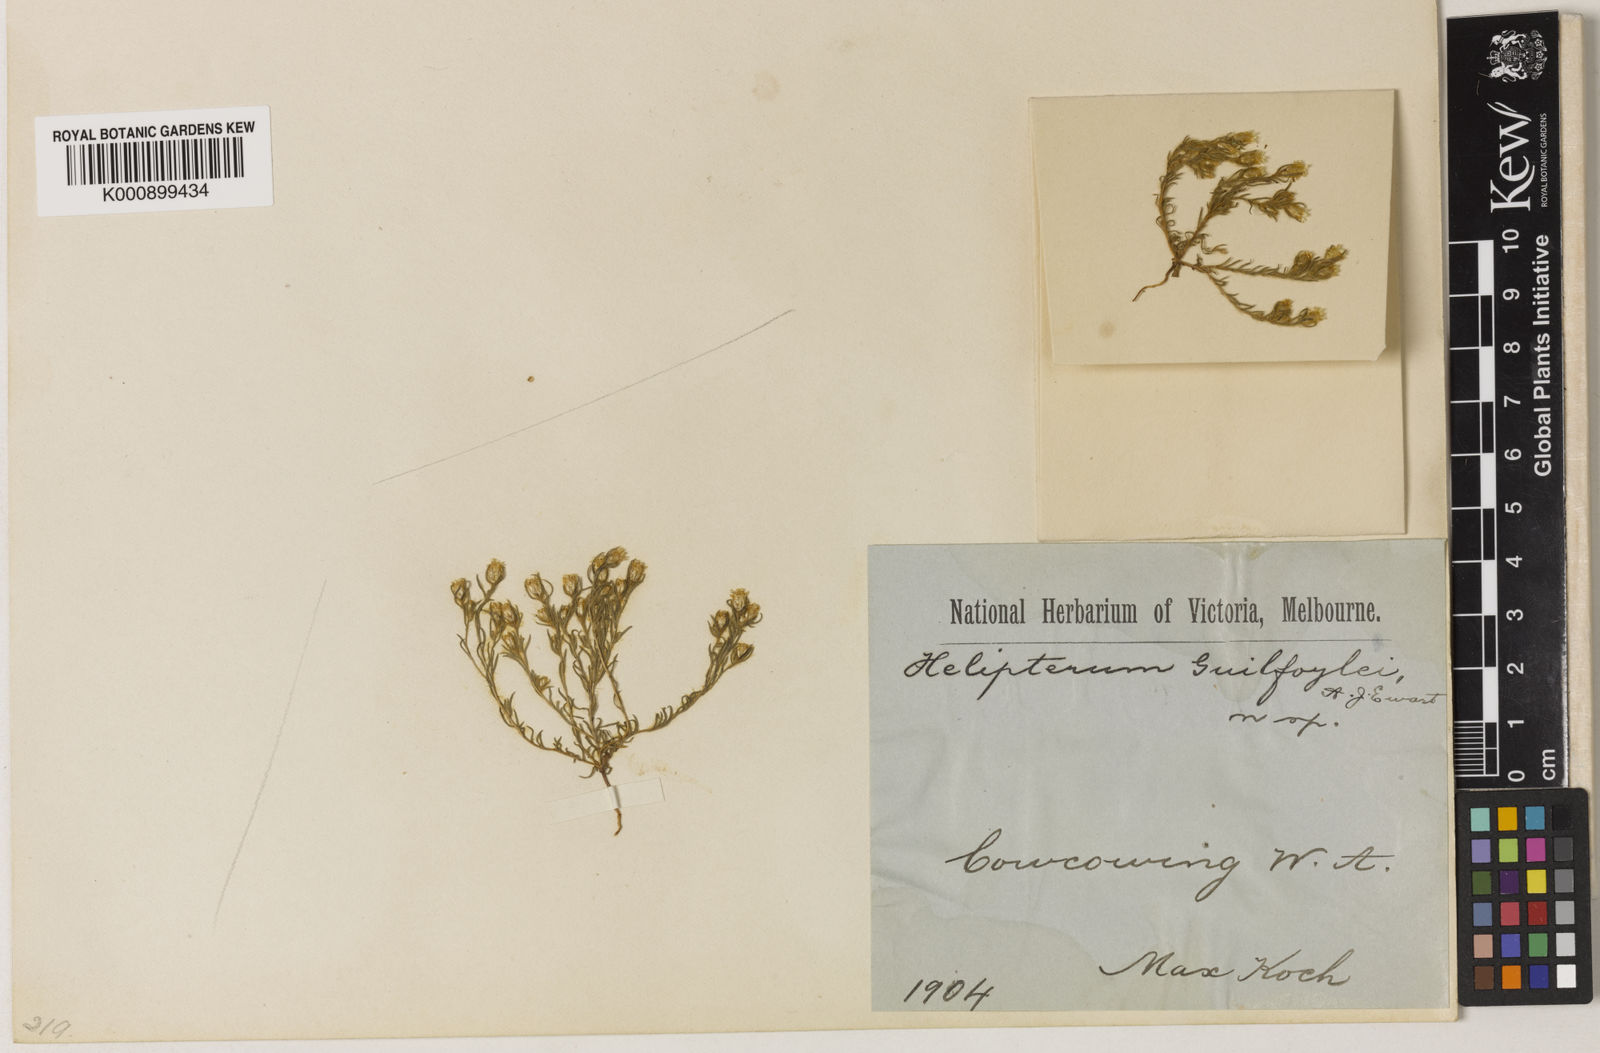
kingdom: Plantae
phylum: Tracheophyta
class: Magnoliopsida
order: Asterales
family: Asteraceae
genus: Hyalosperma
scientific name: Hyalosperma zacchaeus
